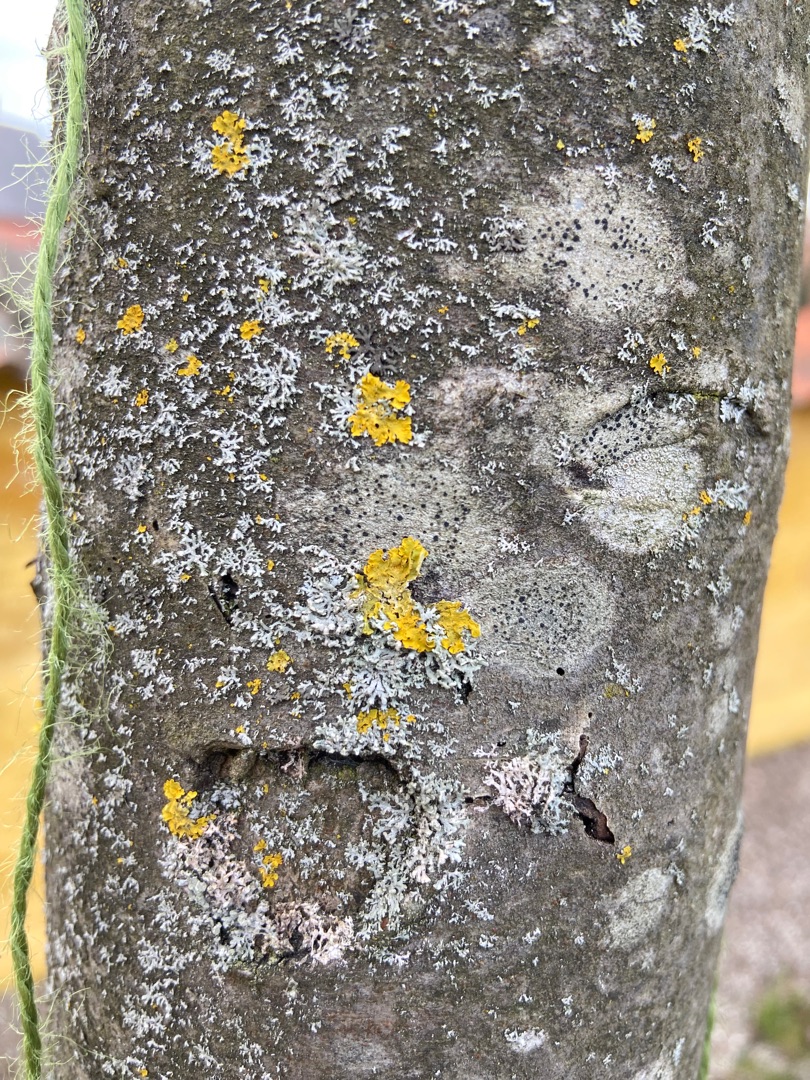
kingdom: Fungi
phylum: Ascomycota
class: Lecanoromycetes
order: Teloschistales
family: Teloschistaceae
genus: Xanthoria
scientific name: Xanthoria parietina
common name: Almindelig væggelav
